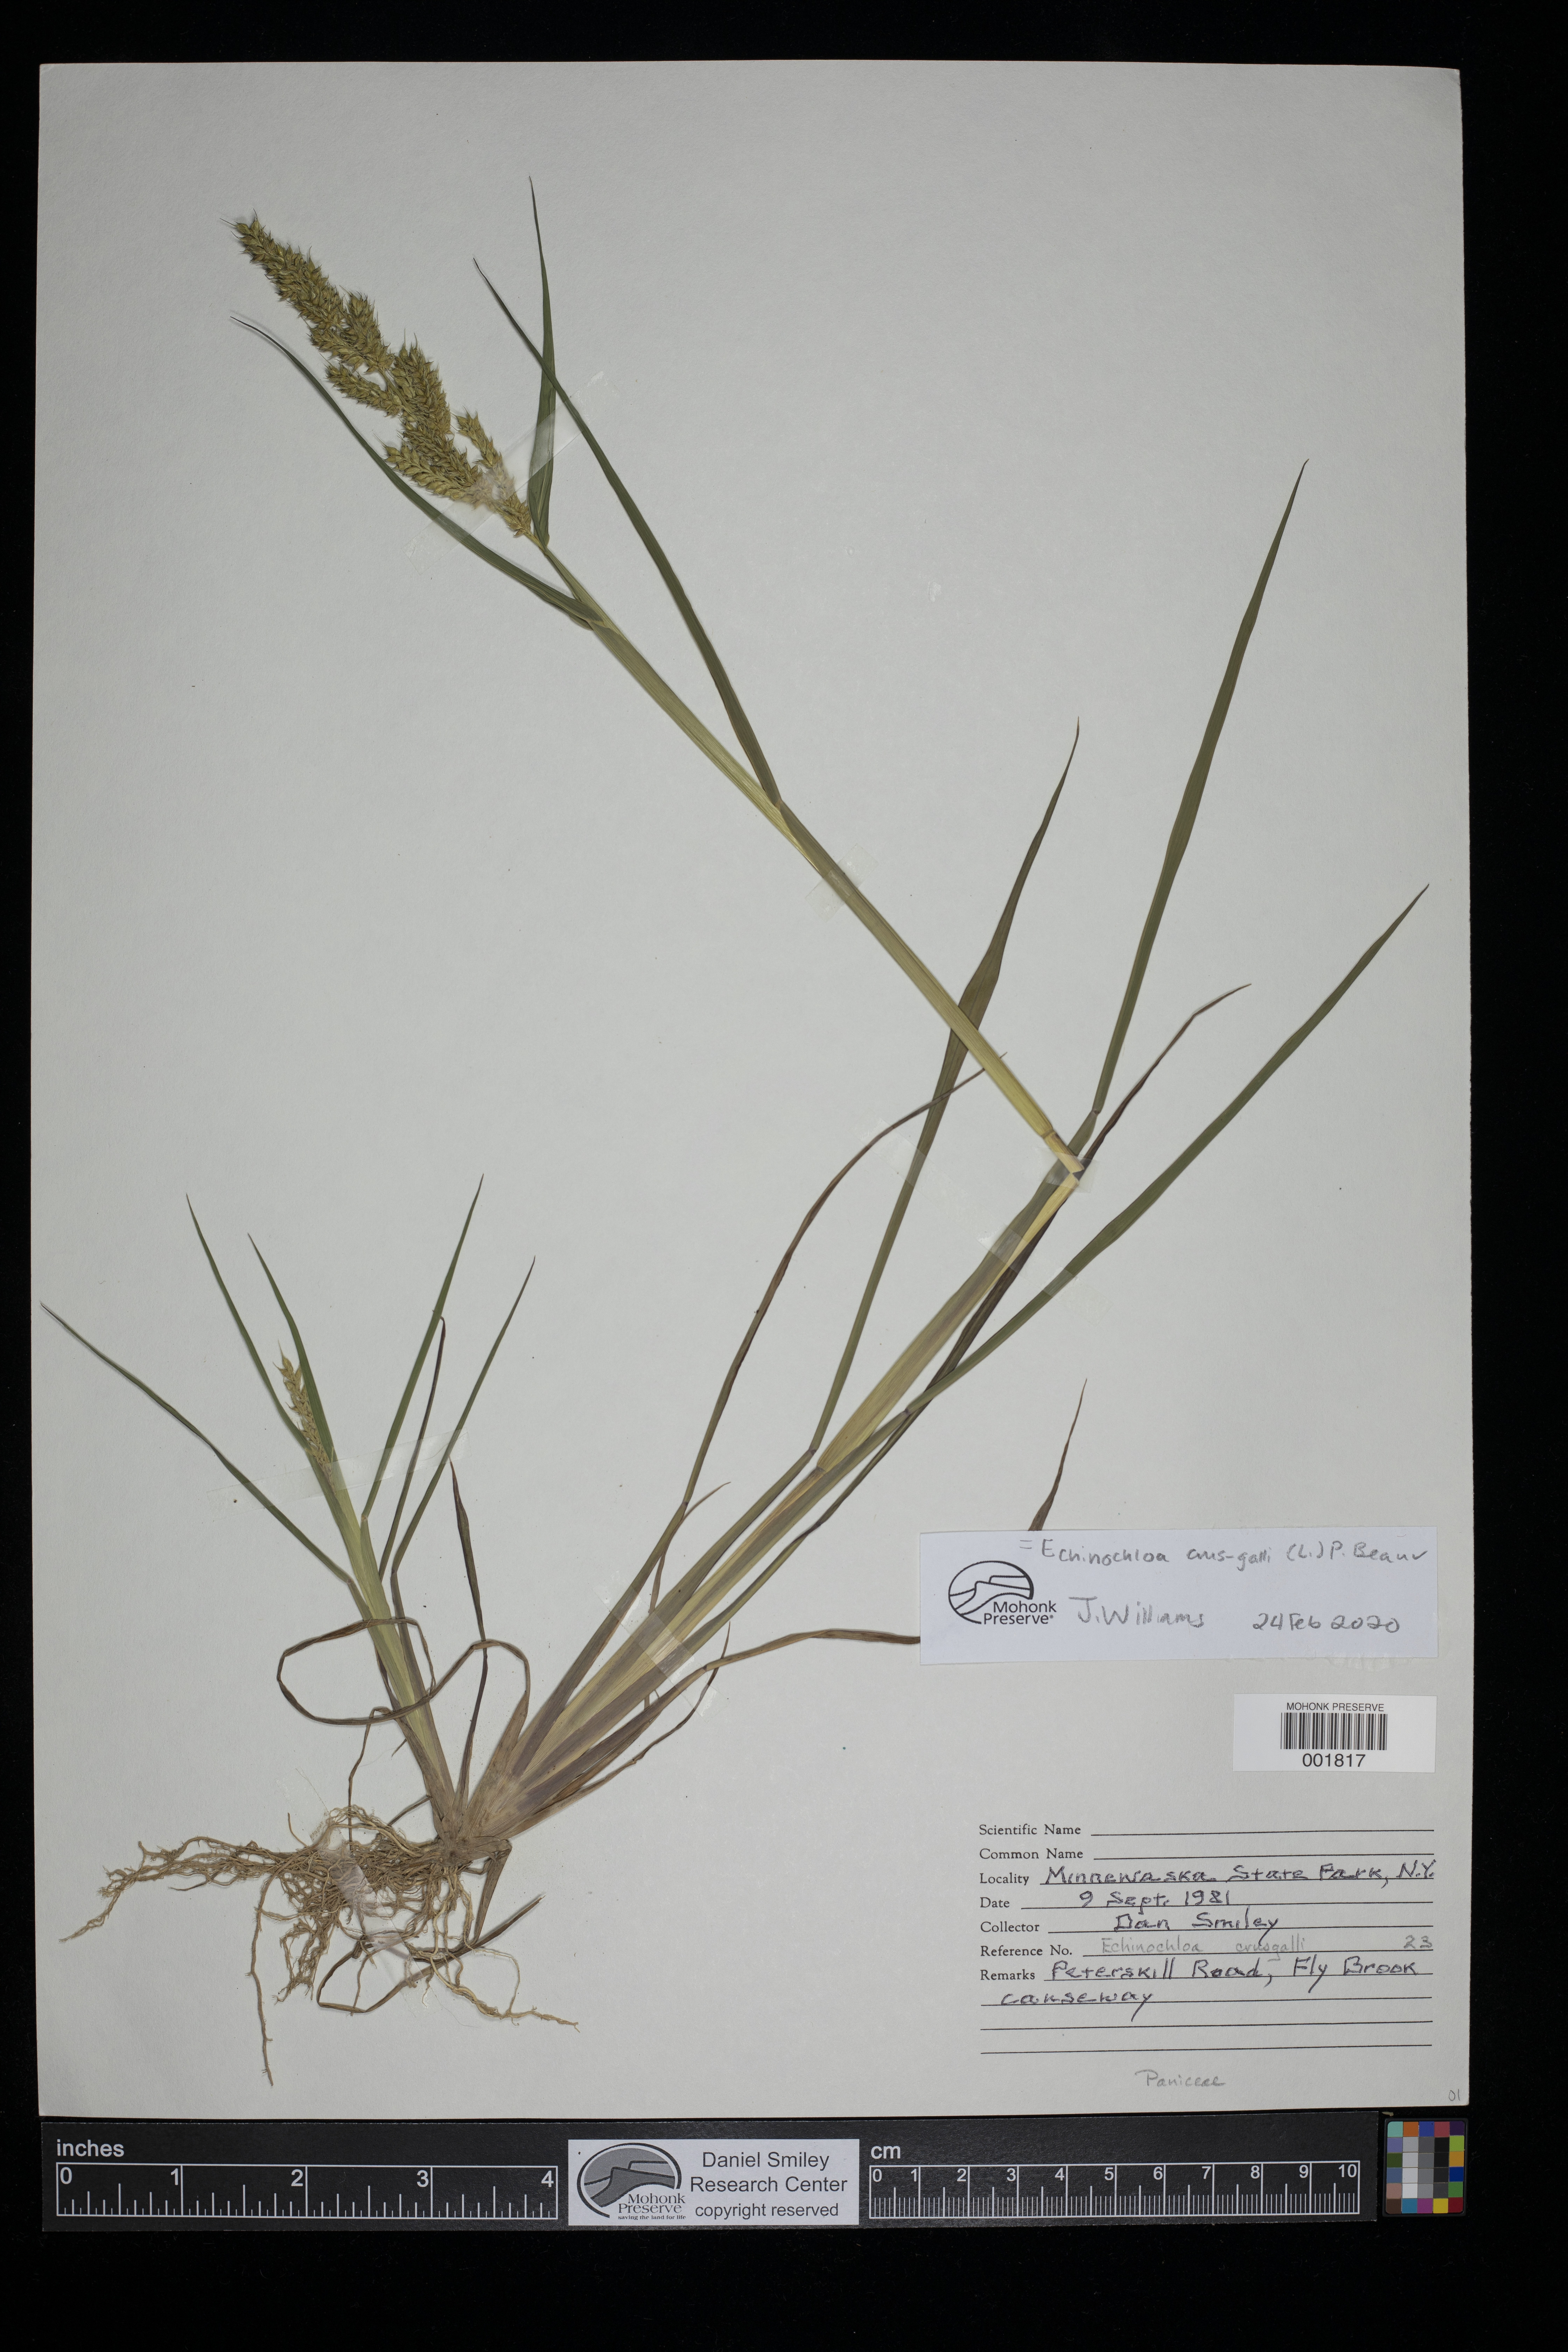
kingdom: Plantae
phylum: Tracheophyta
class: Liliopsida
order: Poales
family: Poaceae
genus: Echinochloa
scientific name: Echinochloa crus-galli
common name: Cockspur
